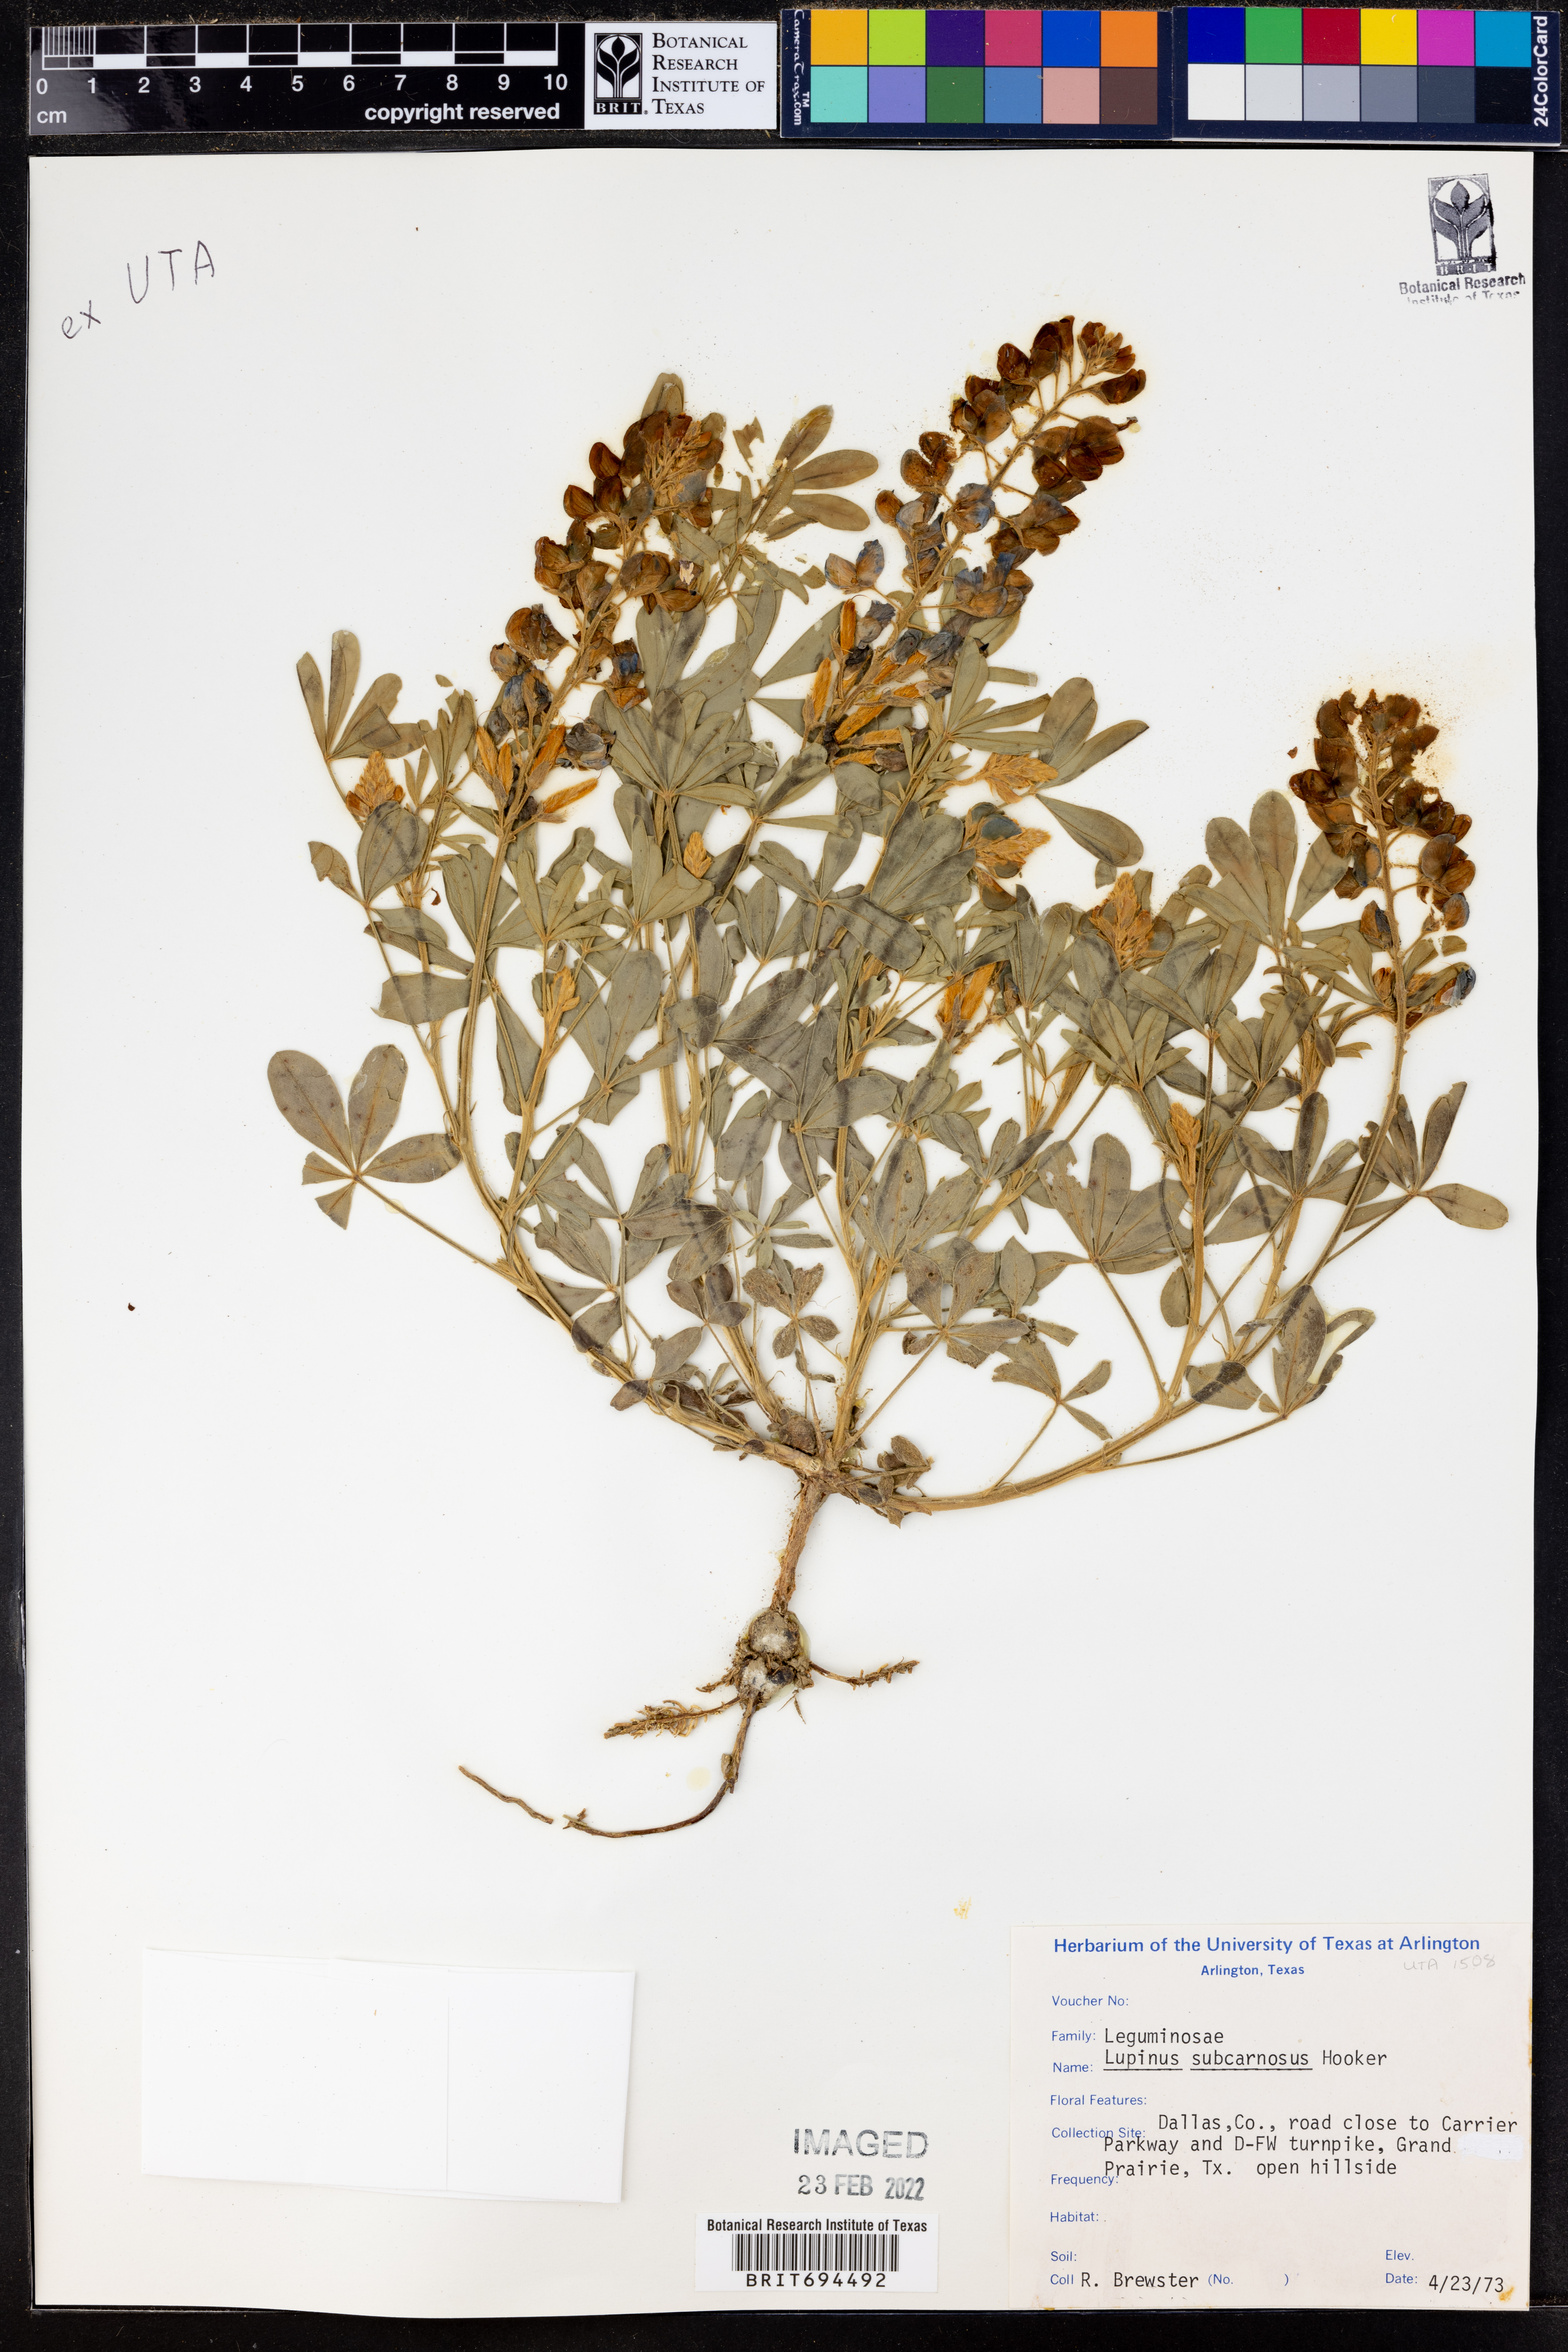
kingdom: Plantae
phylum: Tracheophyta
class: Magnoliopsida
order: Fabales
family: Fabaceae
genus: Lupinus
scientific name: Lupinus subcarnosus
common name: Texas bluebonnet
